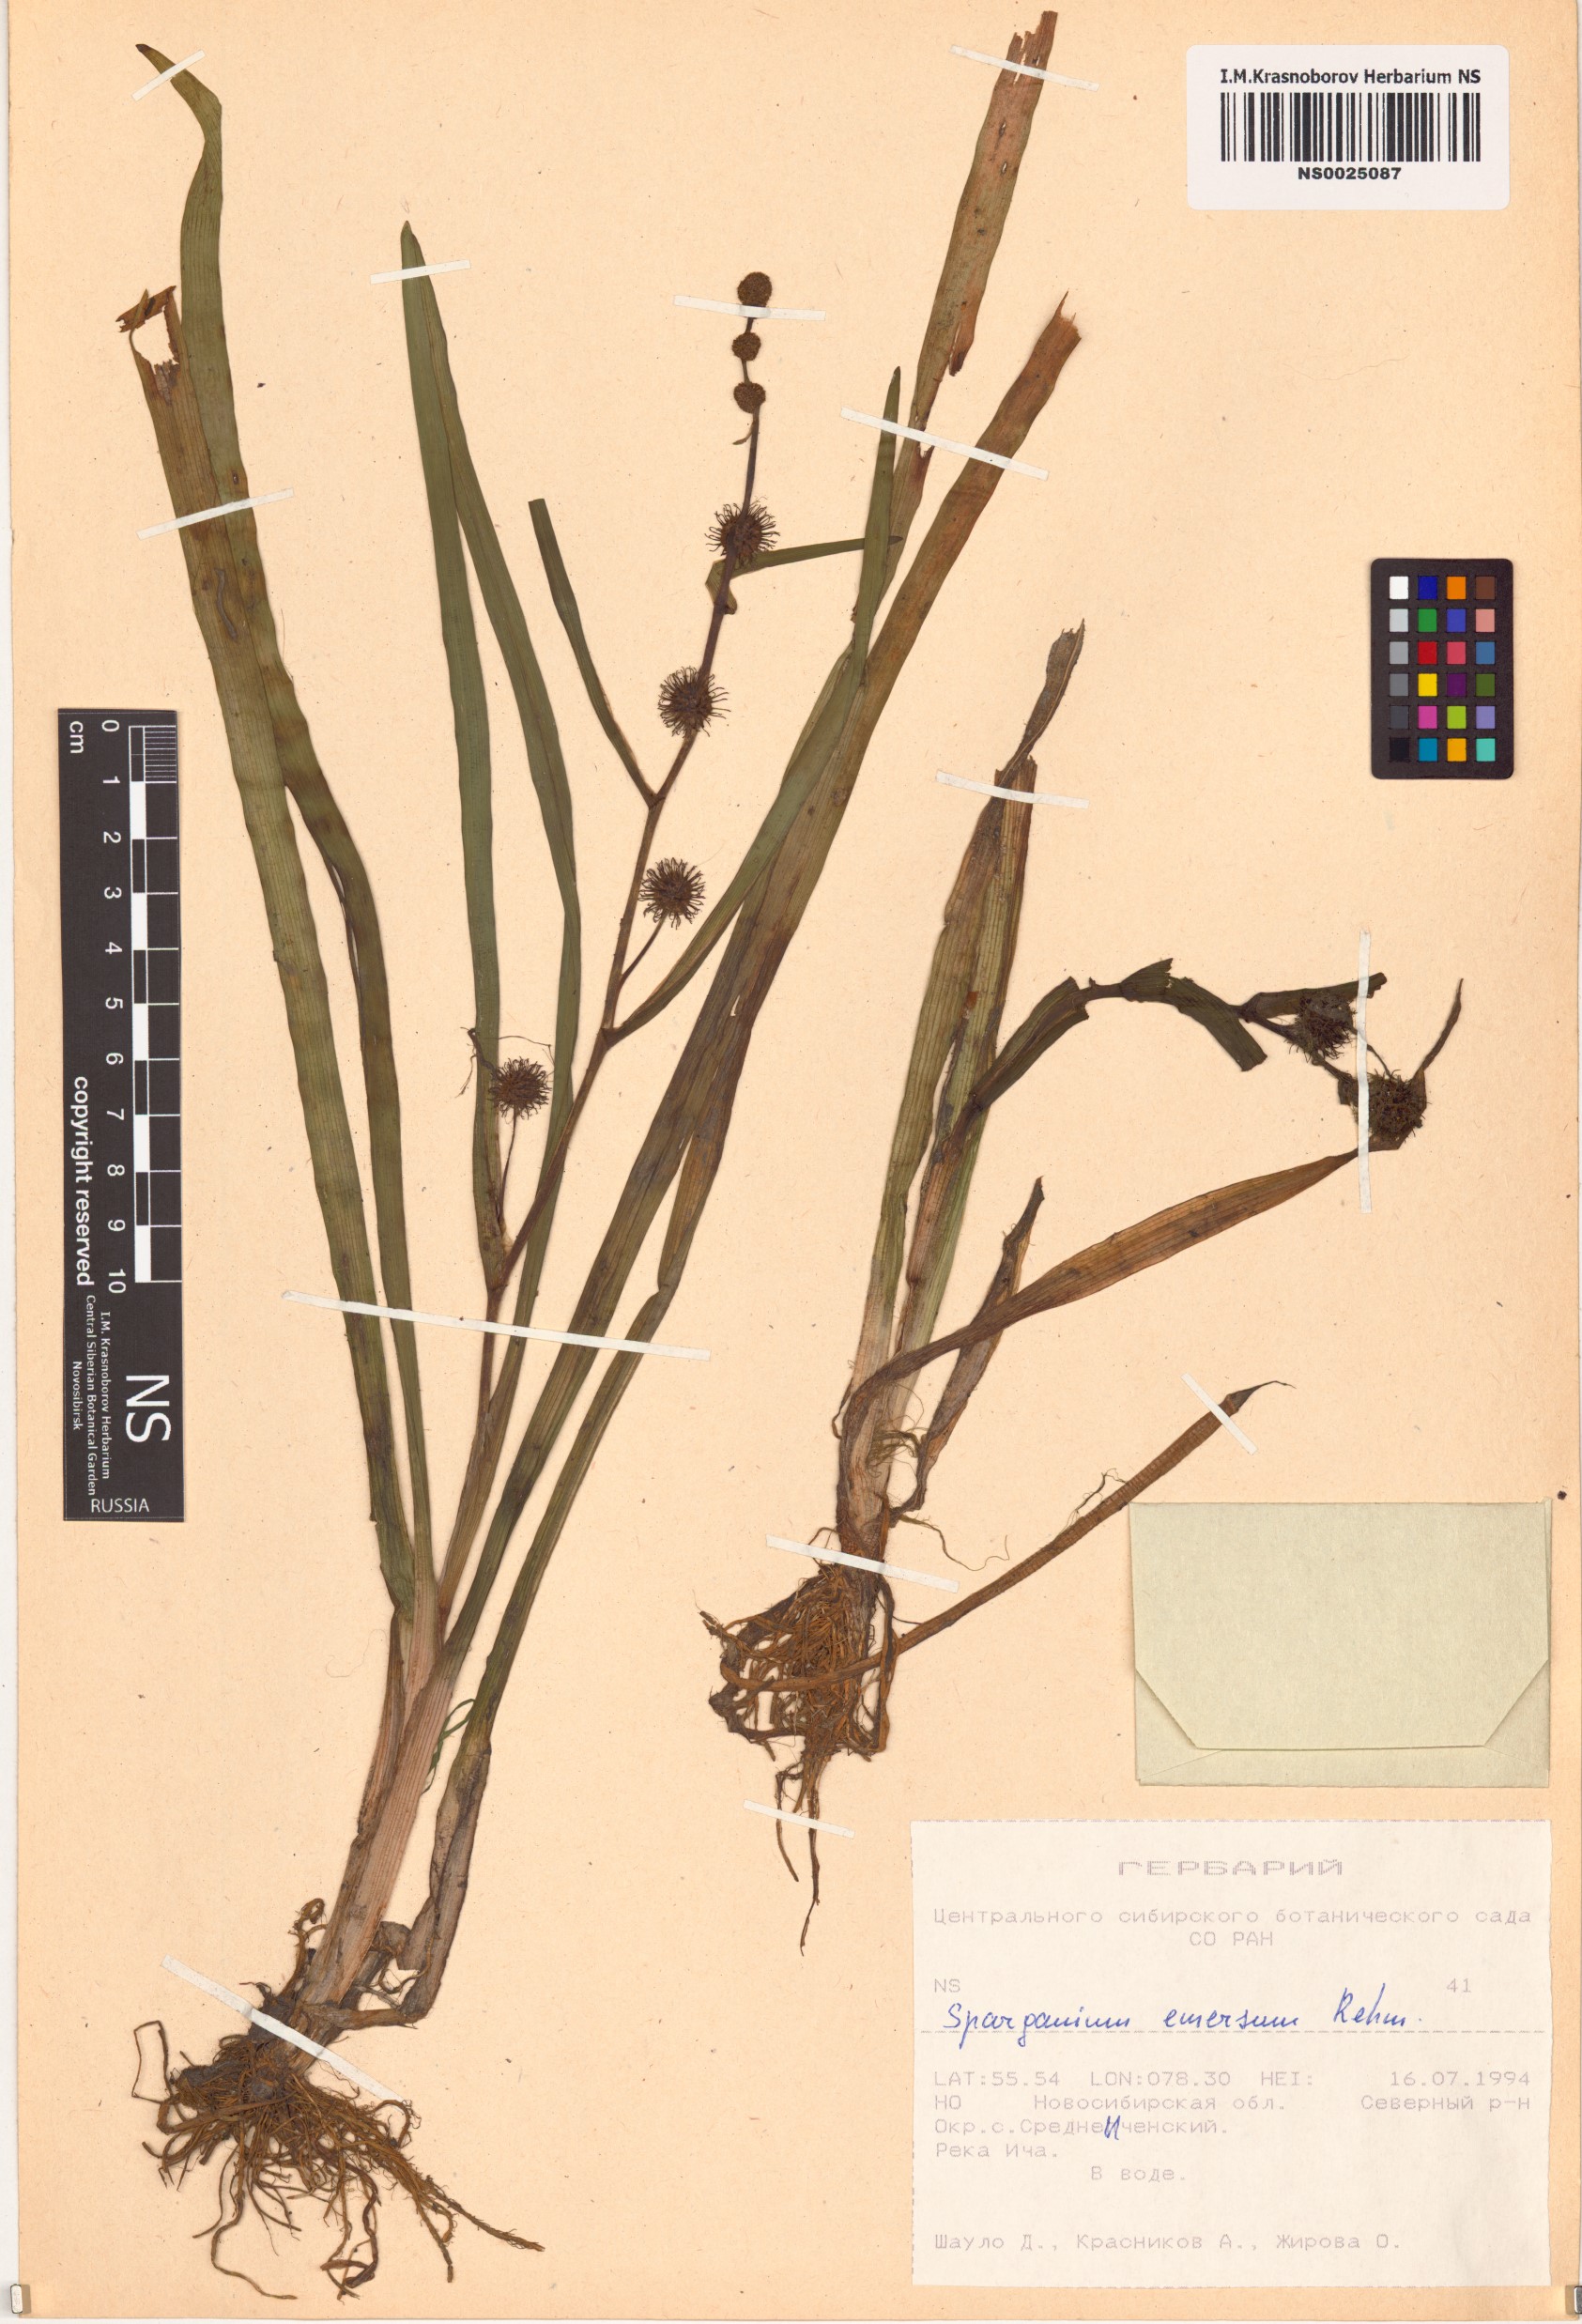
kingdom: Plantae
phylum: Tracheophyta
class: Liliopsida
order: Poales
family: Typhaceae
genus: Sparganium
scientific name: Sparganium emersum
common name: Unbranched bur-reed
